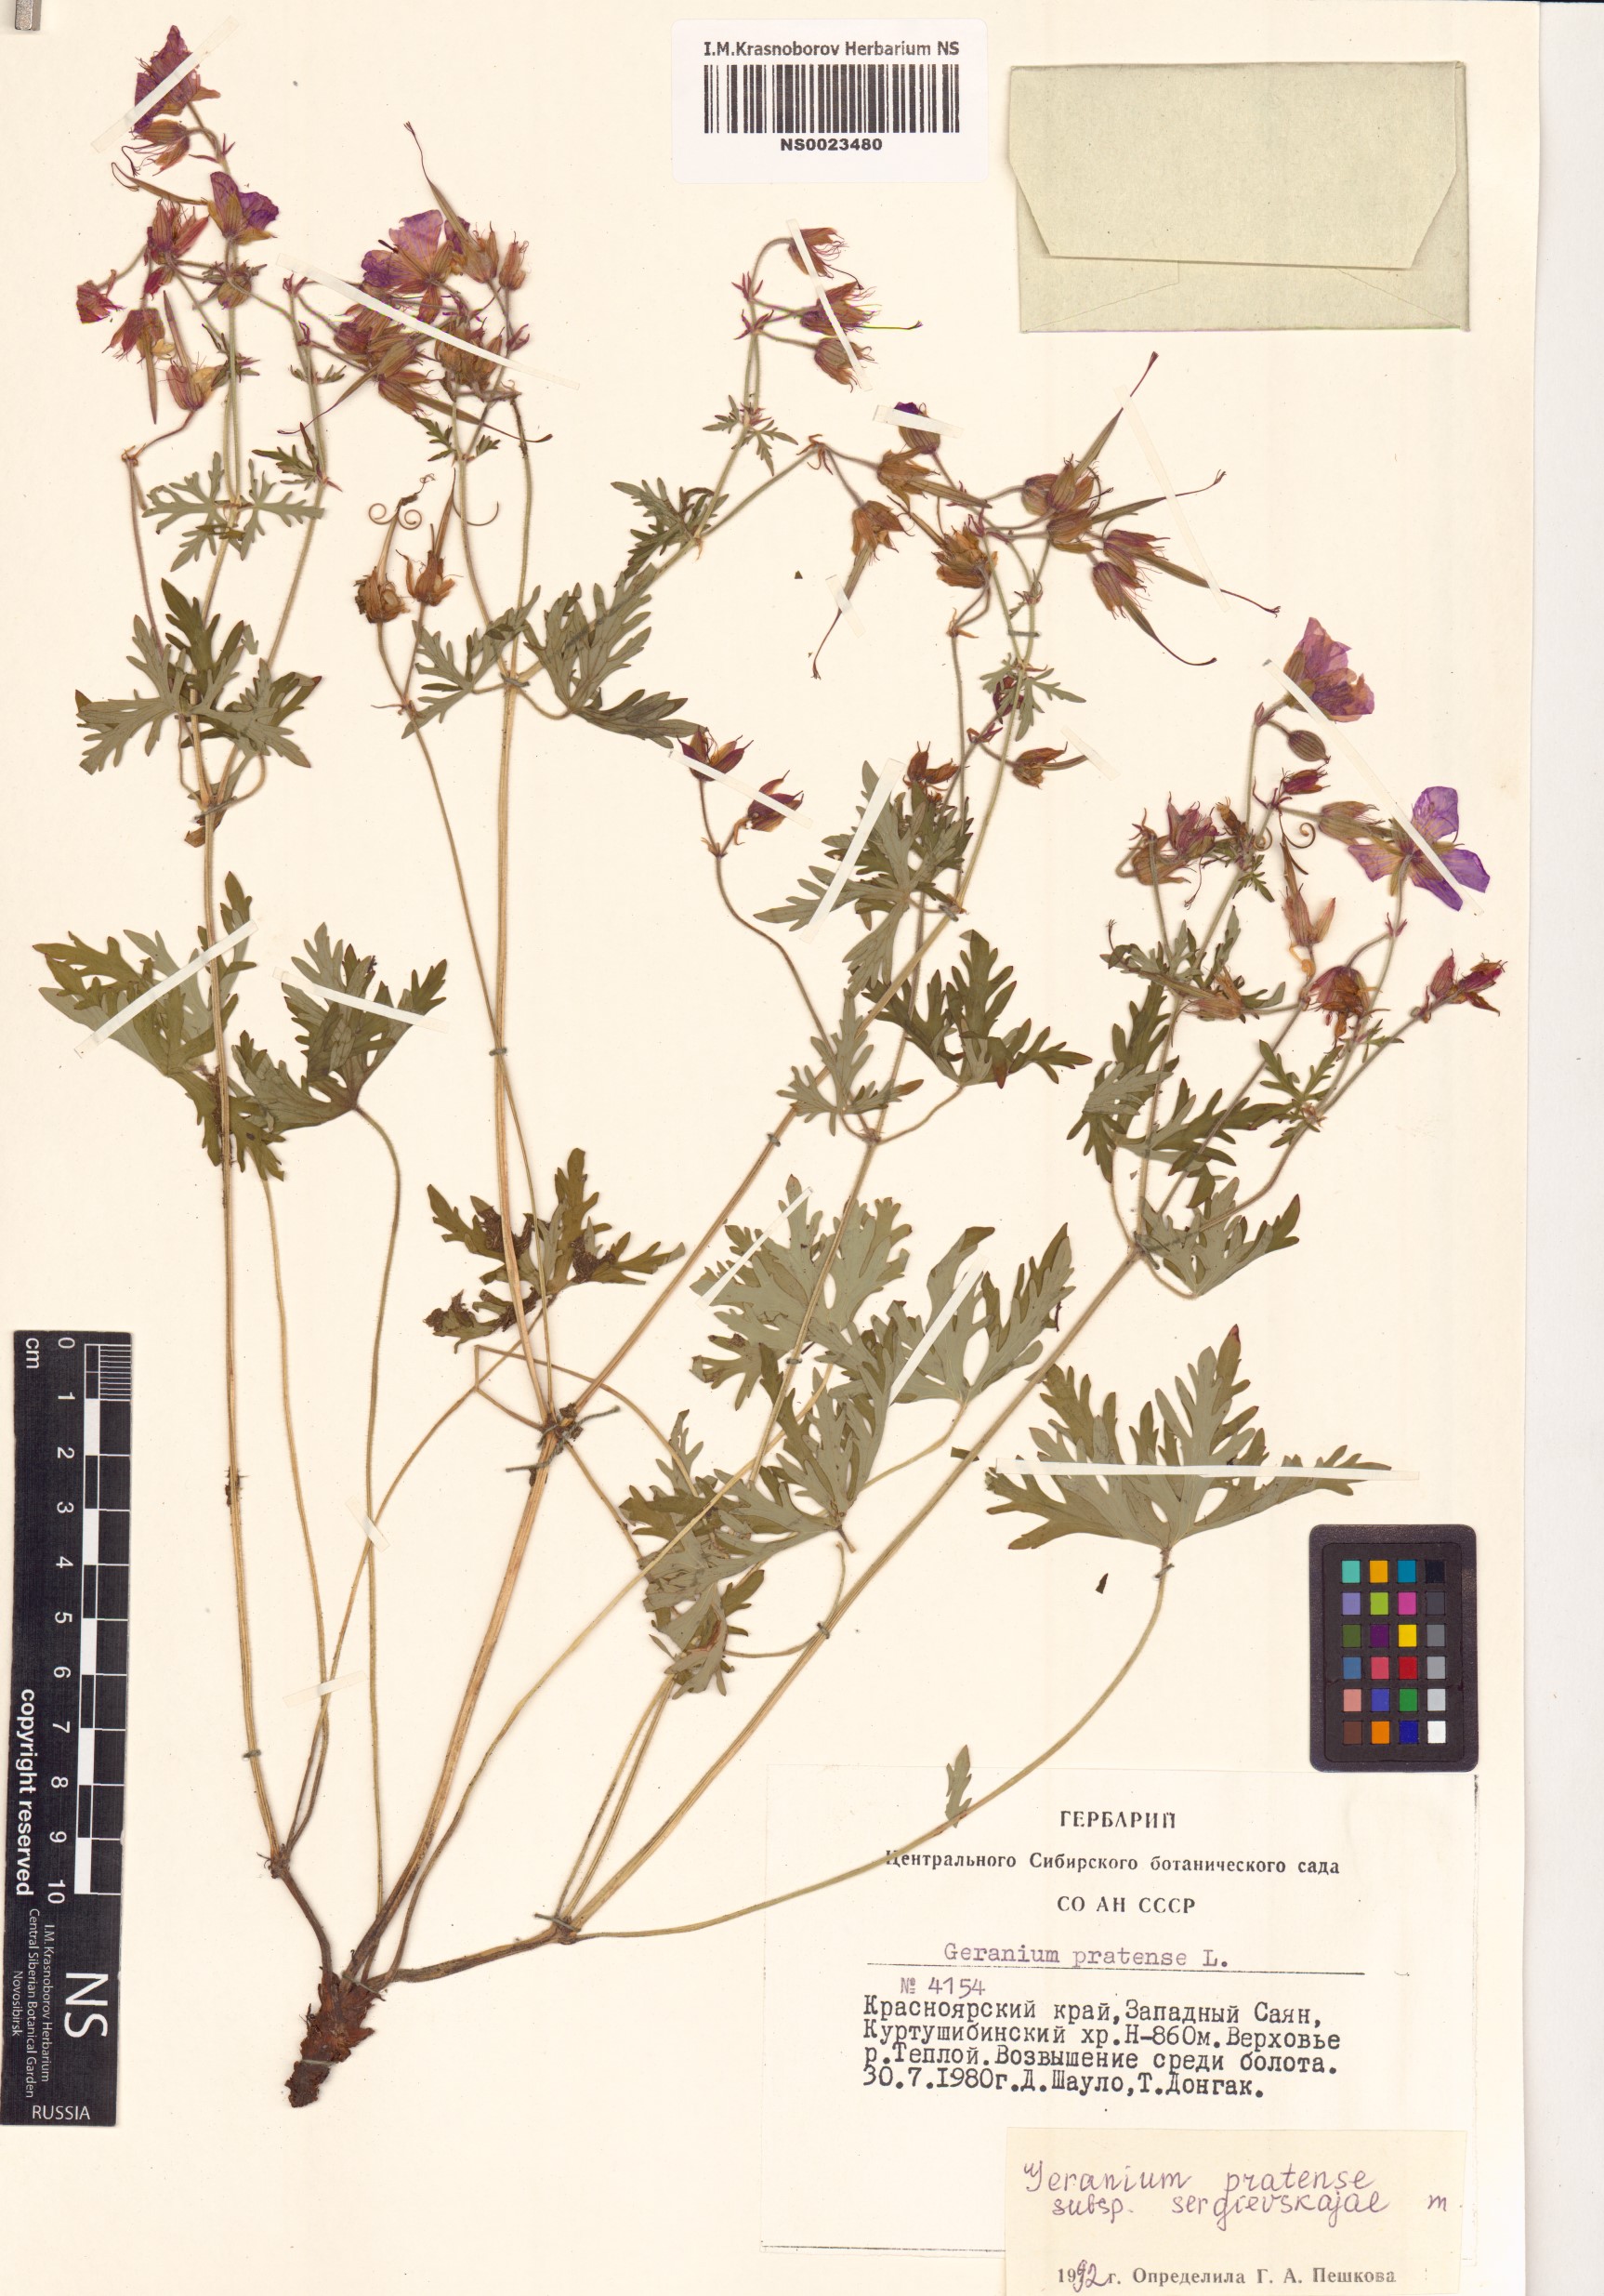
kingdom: Plantae
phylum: Tracheophyta
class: Magnoliopsida
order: Geraniales
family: Geraniaceae
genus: Geranium
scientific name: Geranium pratense
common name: Meadow crane's-bill
